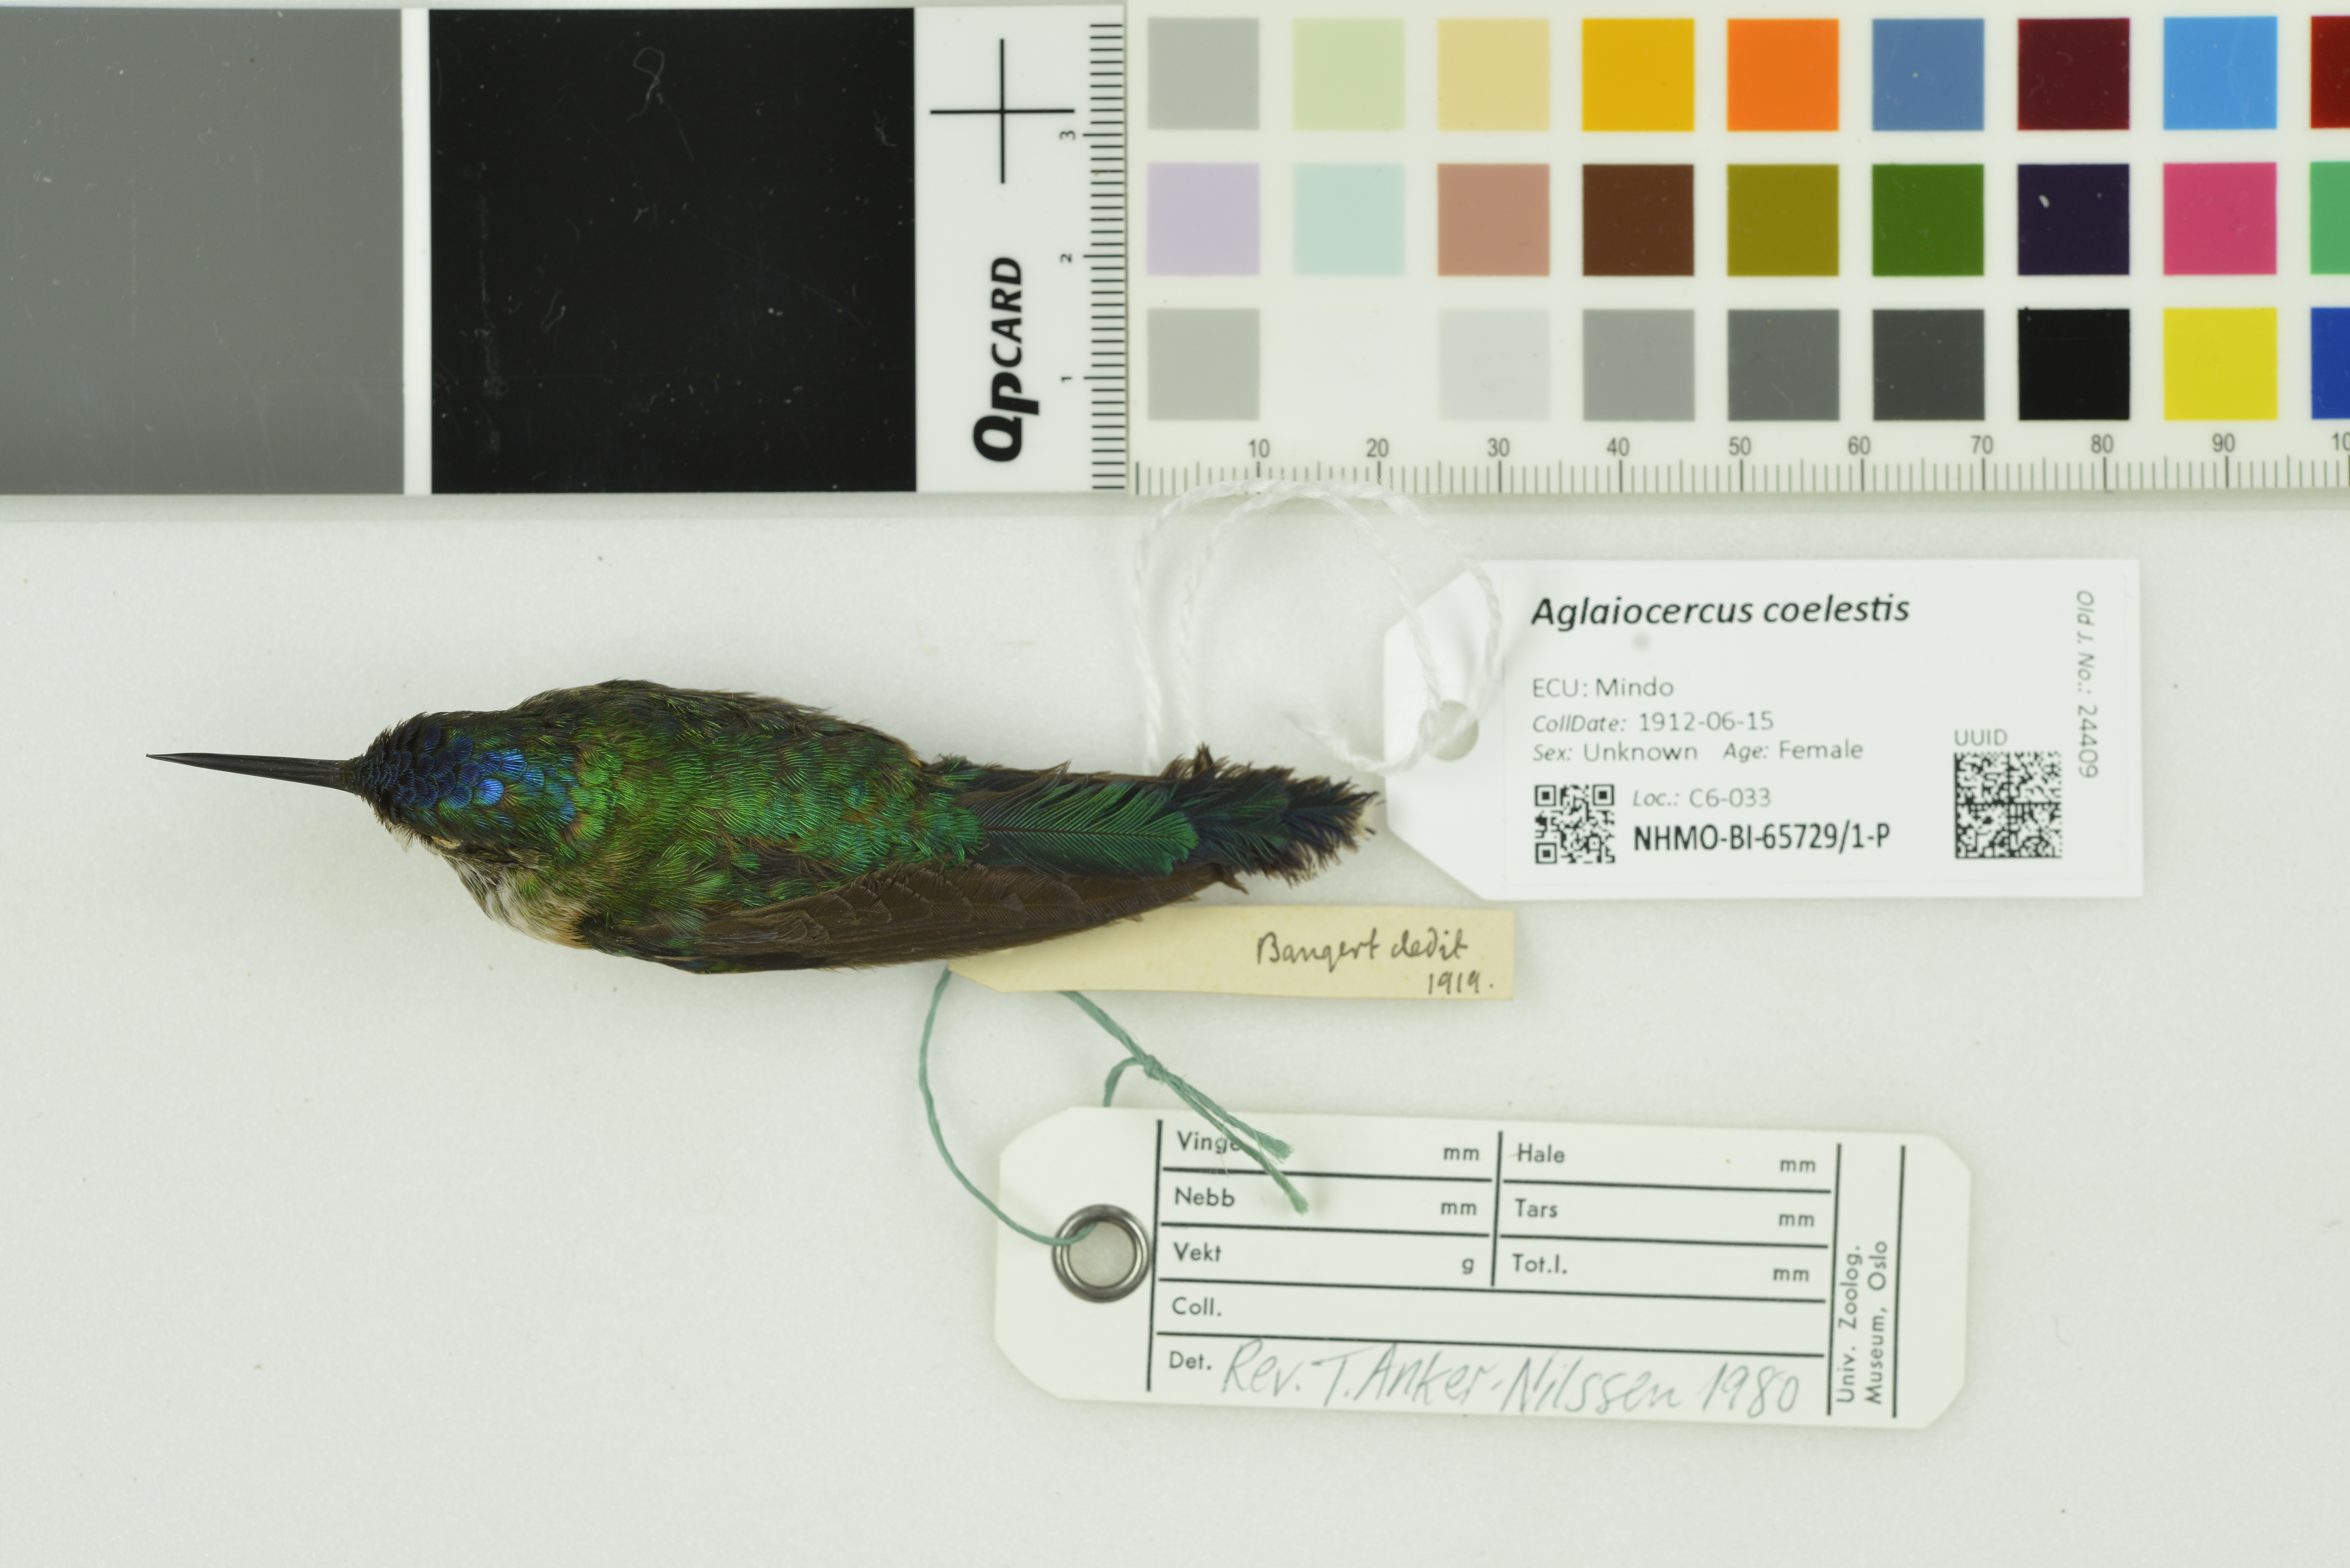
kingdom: Animalia
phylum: Chordata
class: Aves
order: Apodiformes
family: Trochilidae
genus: Aglaiocercus
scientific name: Aglaiocercus coelestis
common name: Violet-tailed sylph
